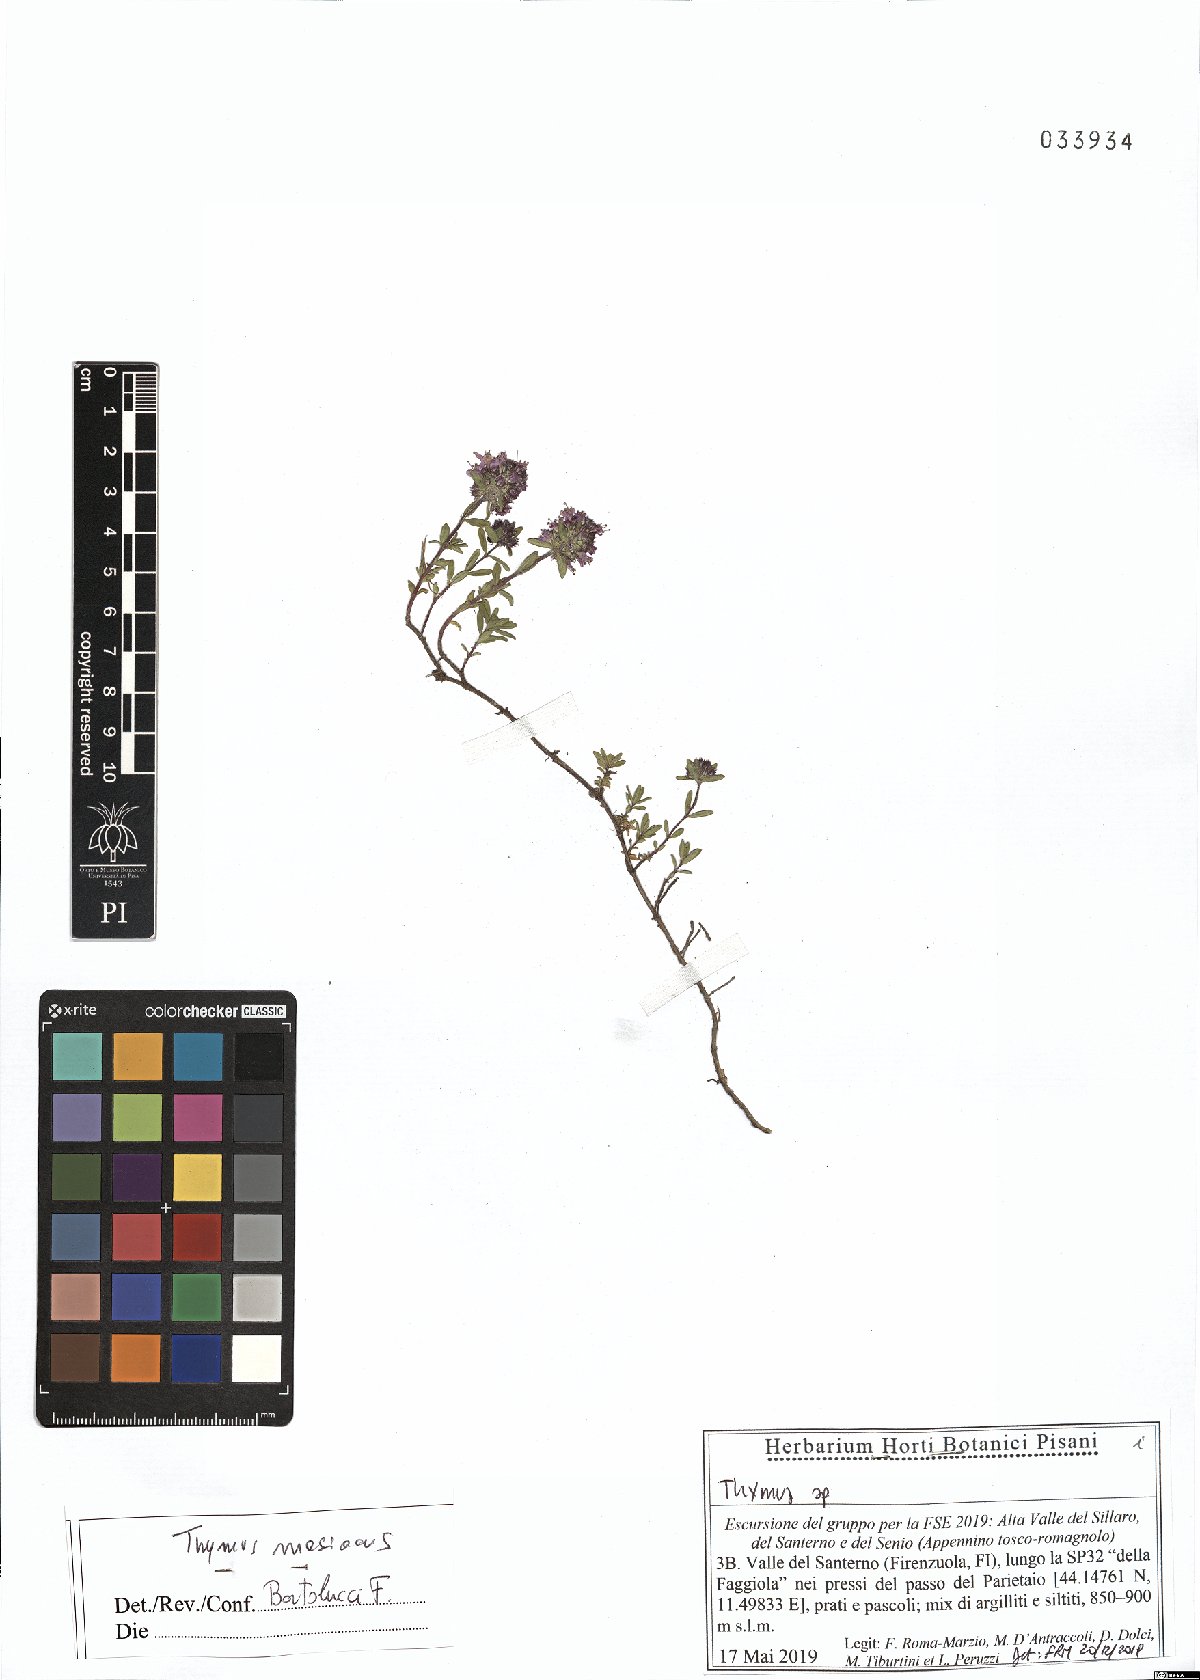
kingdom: Plantae
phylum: Tracheophyta
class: Magnoliopsida
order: Lamiales
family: Lamiaceae
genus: Thymus
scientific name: Thymus longicaulis
